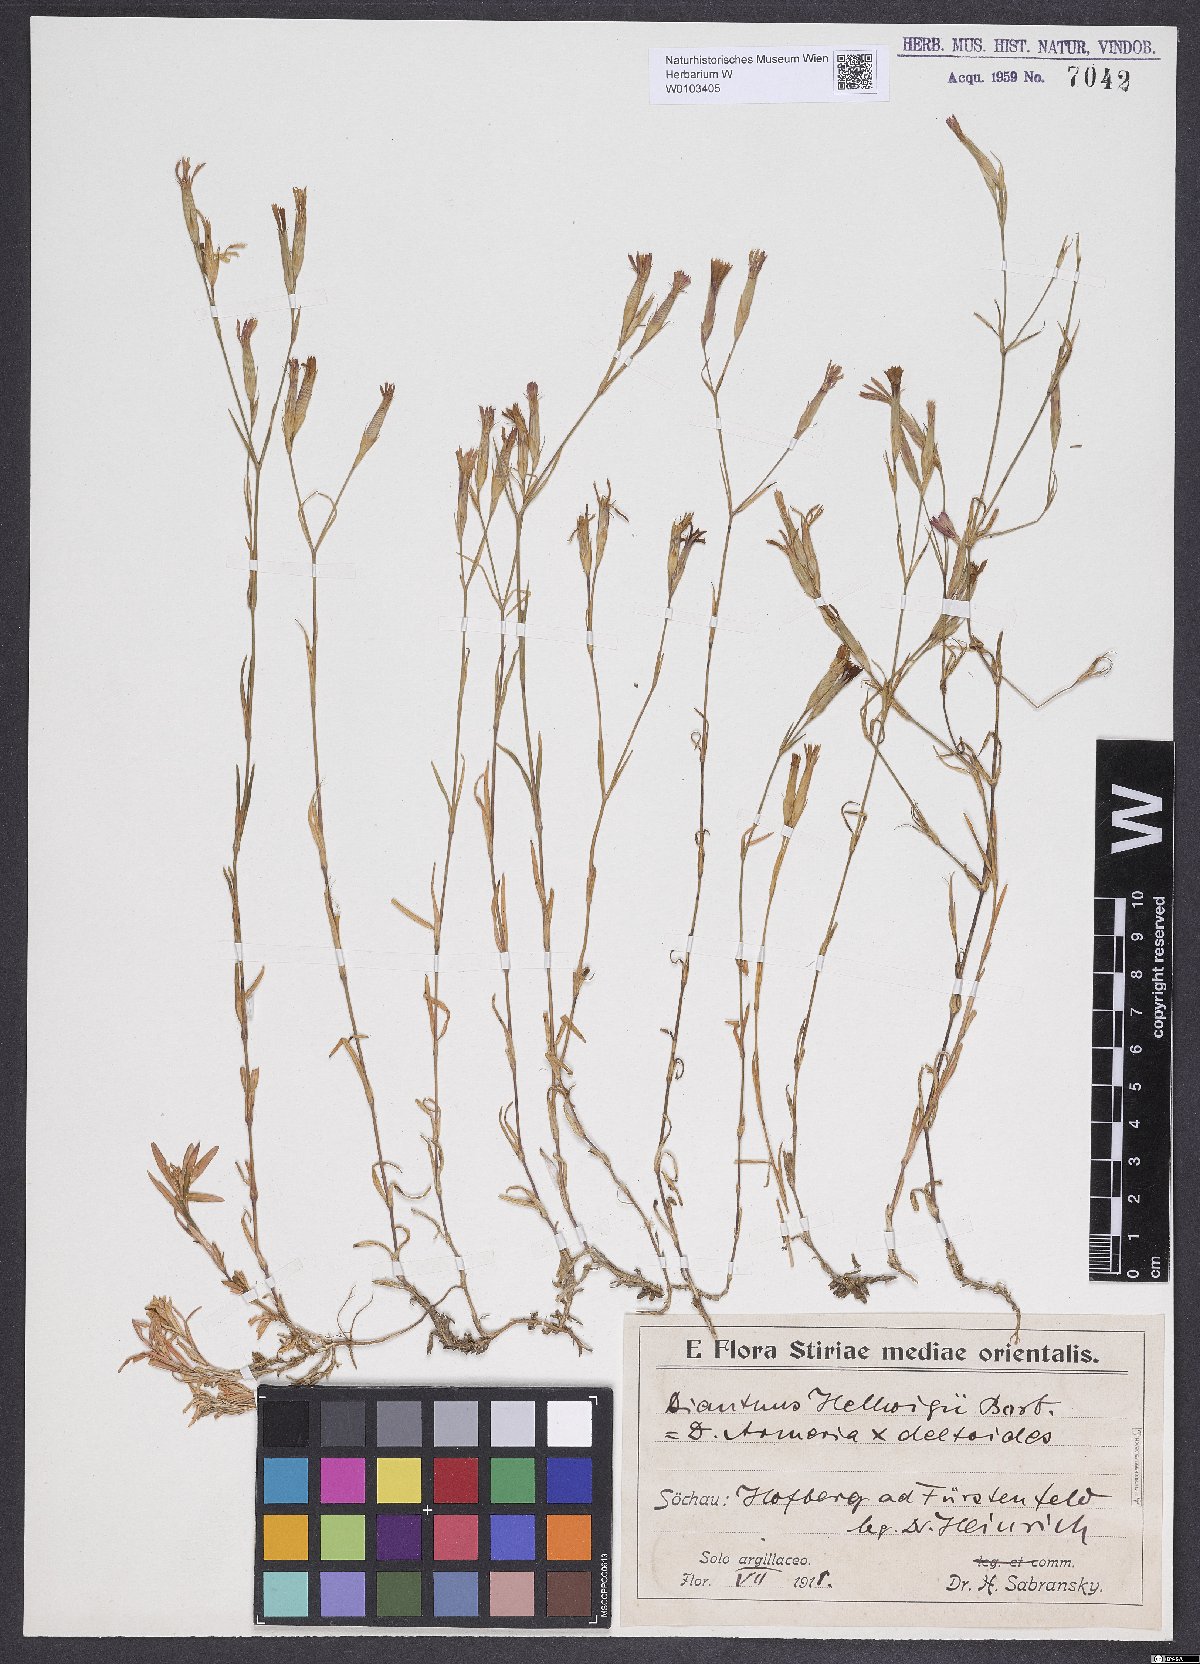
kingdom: Plantae
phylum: Tracheophyta
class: Magnoliopsida
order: Caryophyllales
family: Caryophyllaceae
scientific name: Caryophyllaceae
